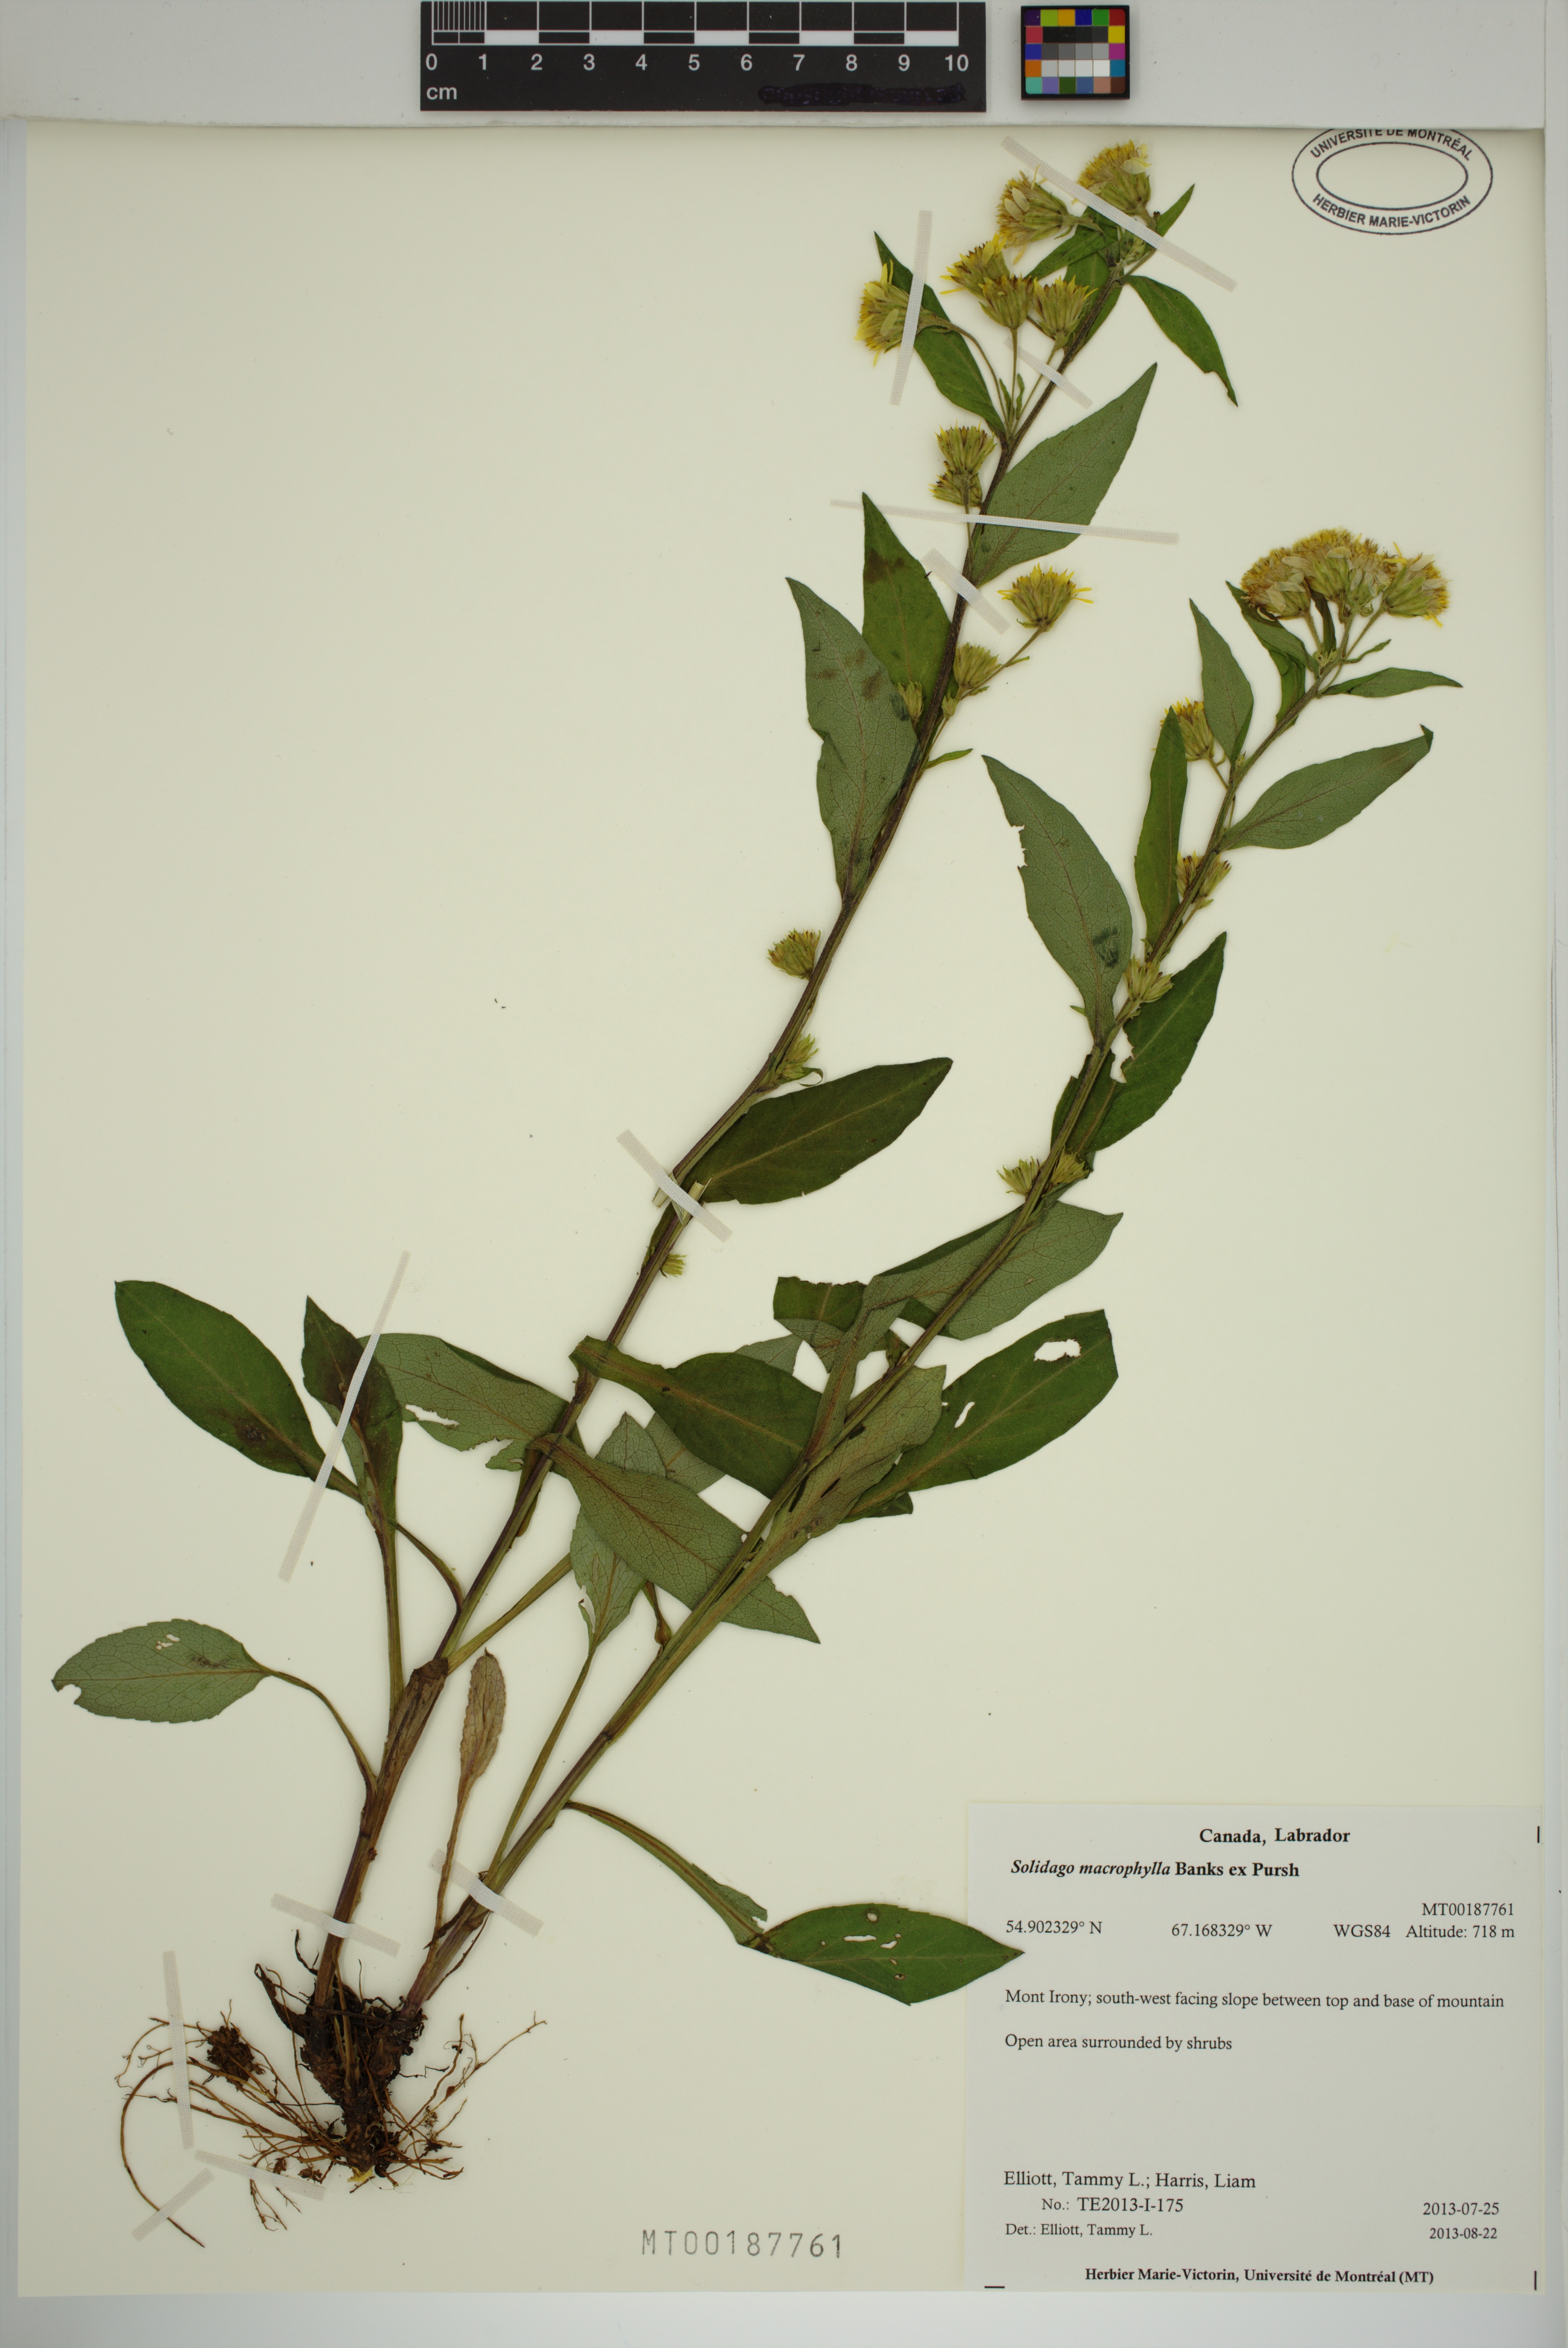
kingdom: Plantae
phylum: Tracheophyta
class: Magnoliopsida
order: Asterales
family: Asteraceae
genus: Solidago
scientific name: Solidago macrophylla
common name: Large-leaved goldenrod
